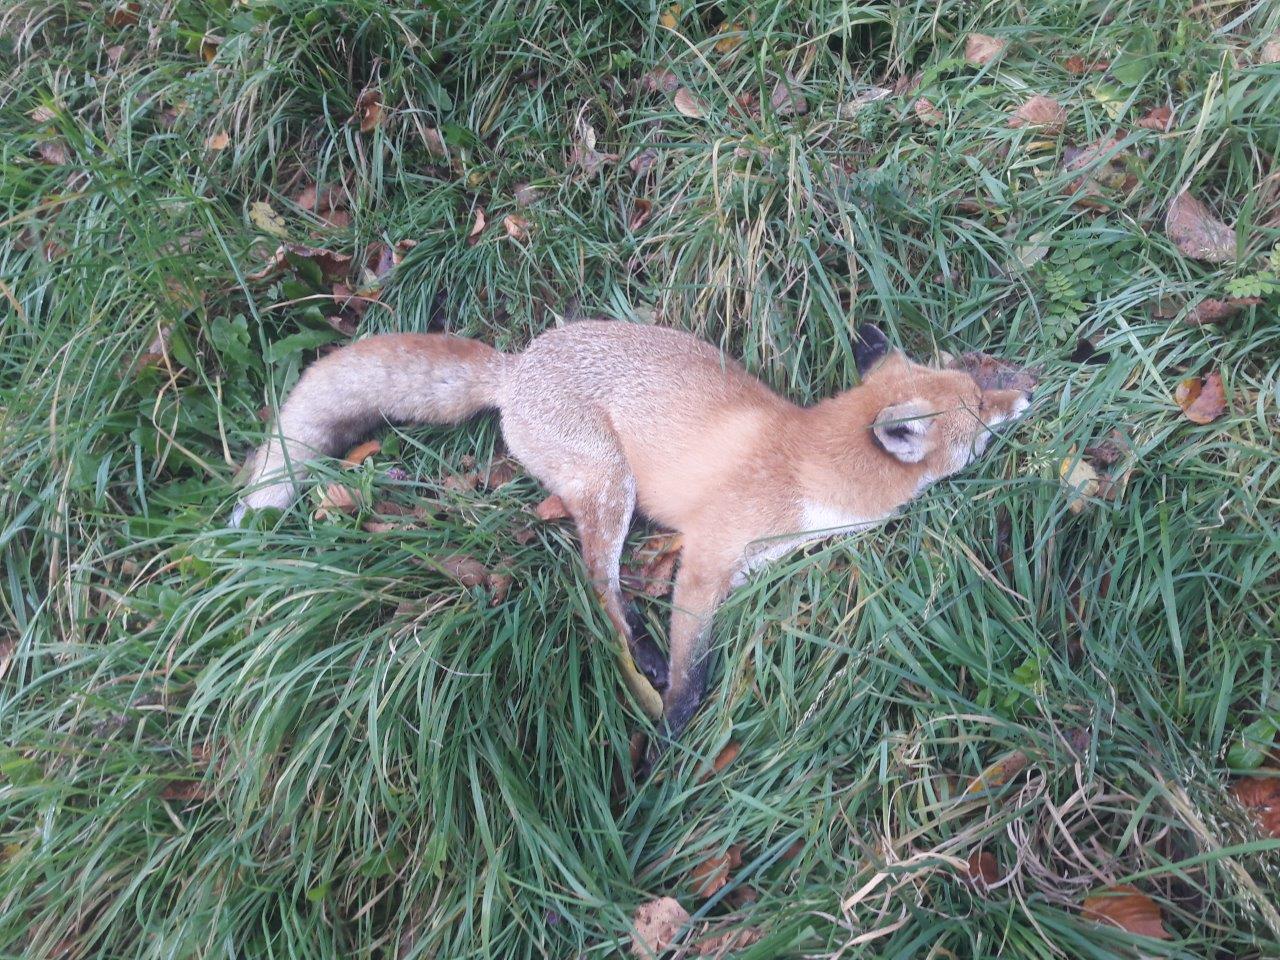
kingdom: Animalia
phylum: Chordata
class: Mammalia
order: Carnivora
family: Canidae
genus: Vulpes
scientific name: Vulpes vulpes
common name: Red fox
